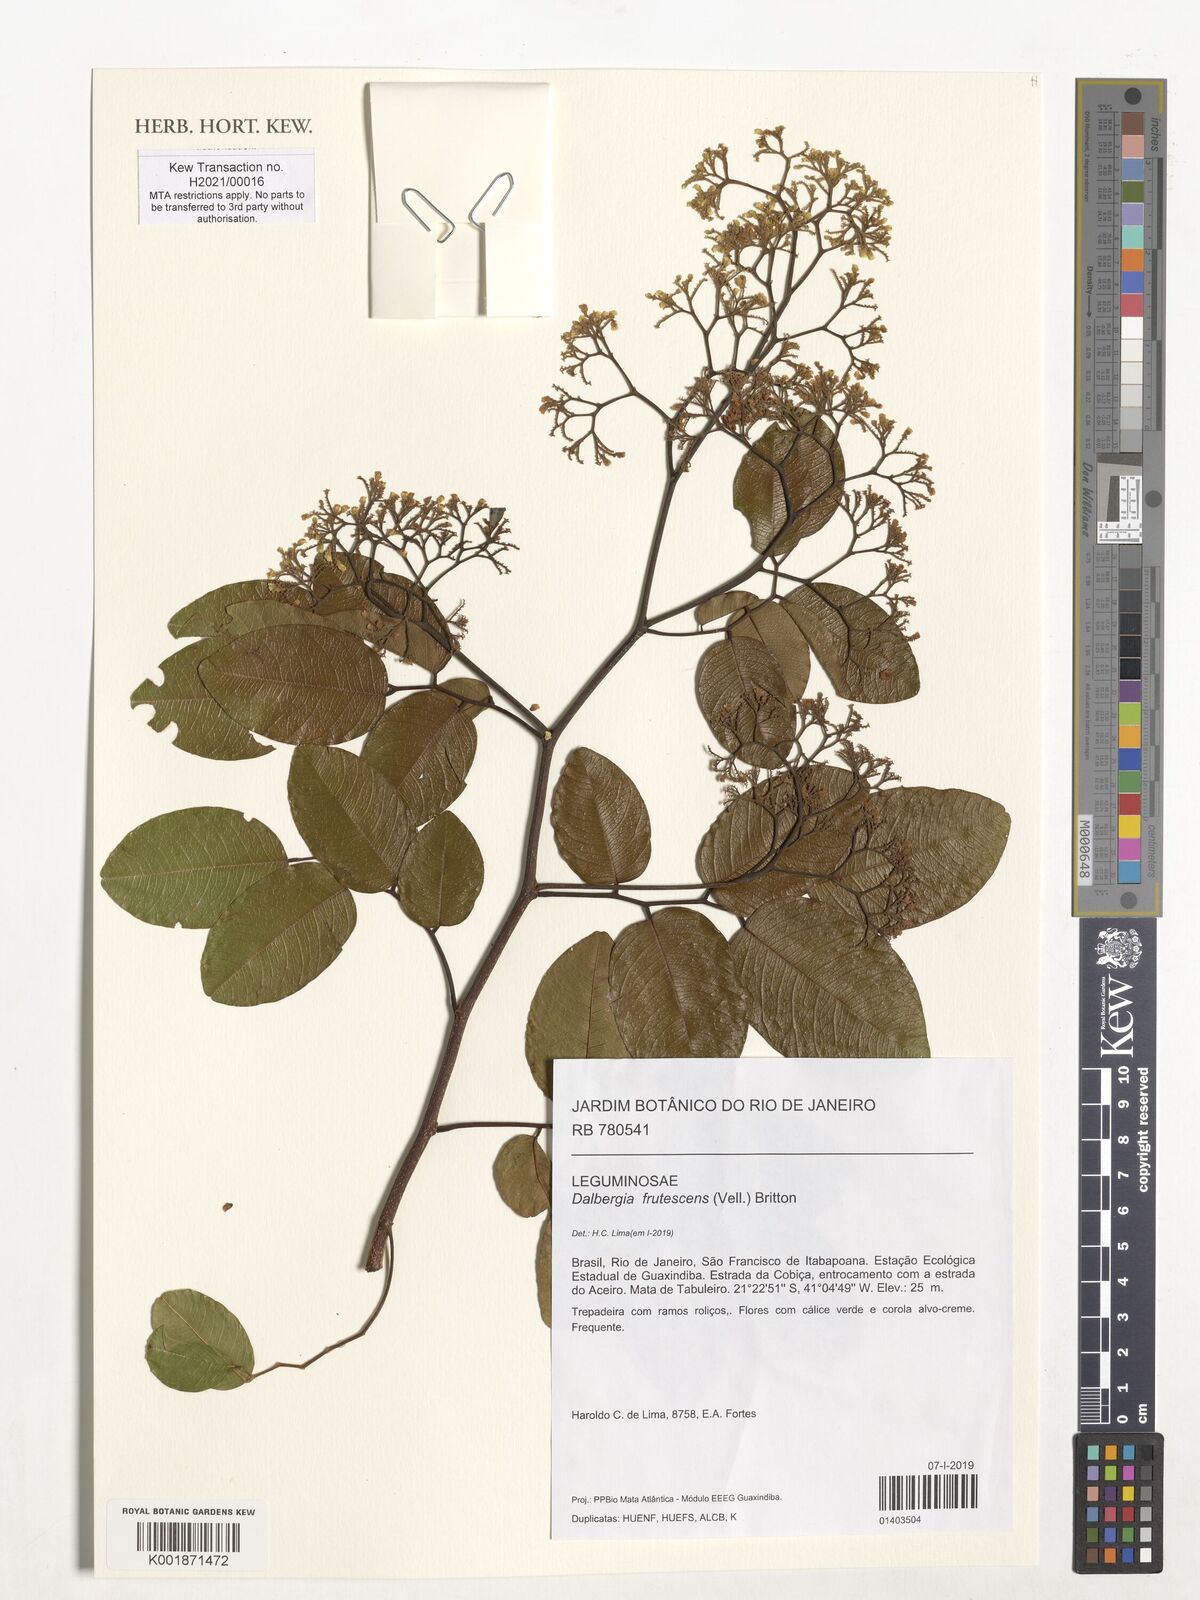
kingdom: Plantae
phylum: Tracheophyta
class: Magnoliopsida
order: Fabales
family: Fabaceae
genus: Dalbergia
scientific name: Dalbergia frutescens
